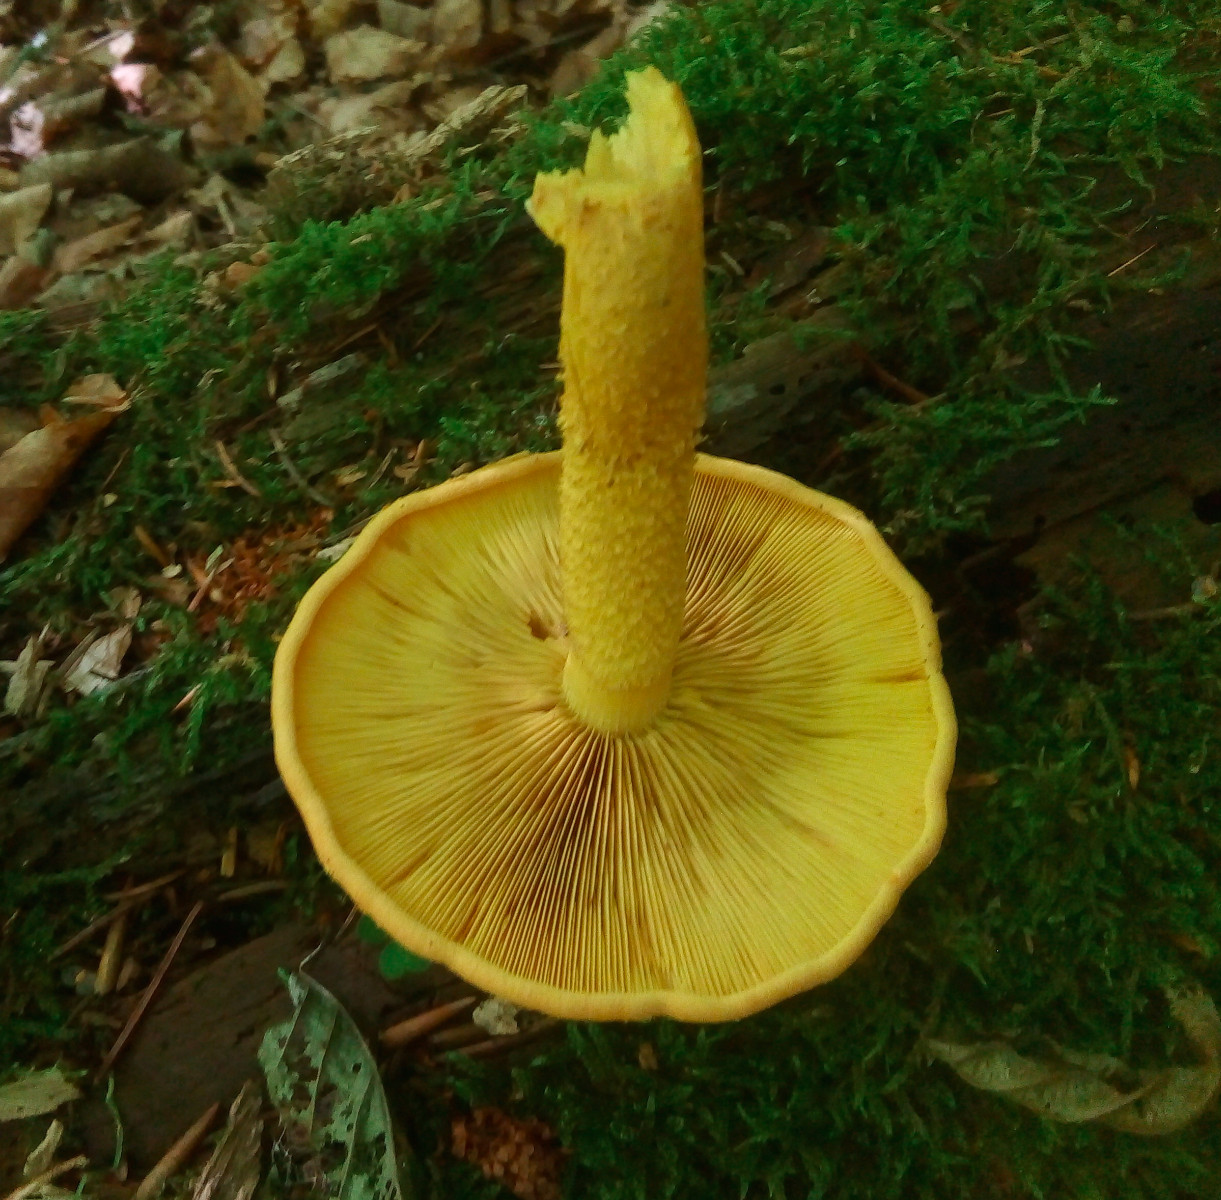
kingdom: Fungi
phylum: Basidiomycota
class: Agaricomycetes
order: Agaricales
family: Strophariaceae
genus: Pholiota
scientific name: Pholiota flammans
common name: flamme-skælhat
